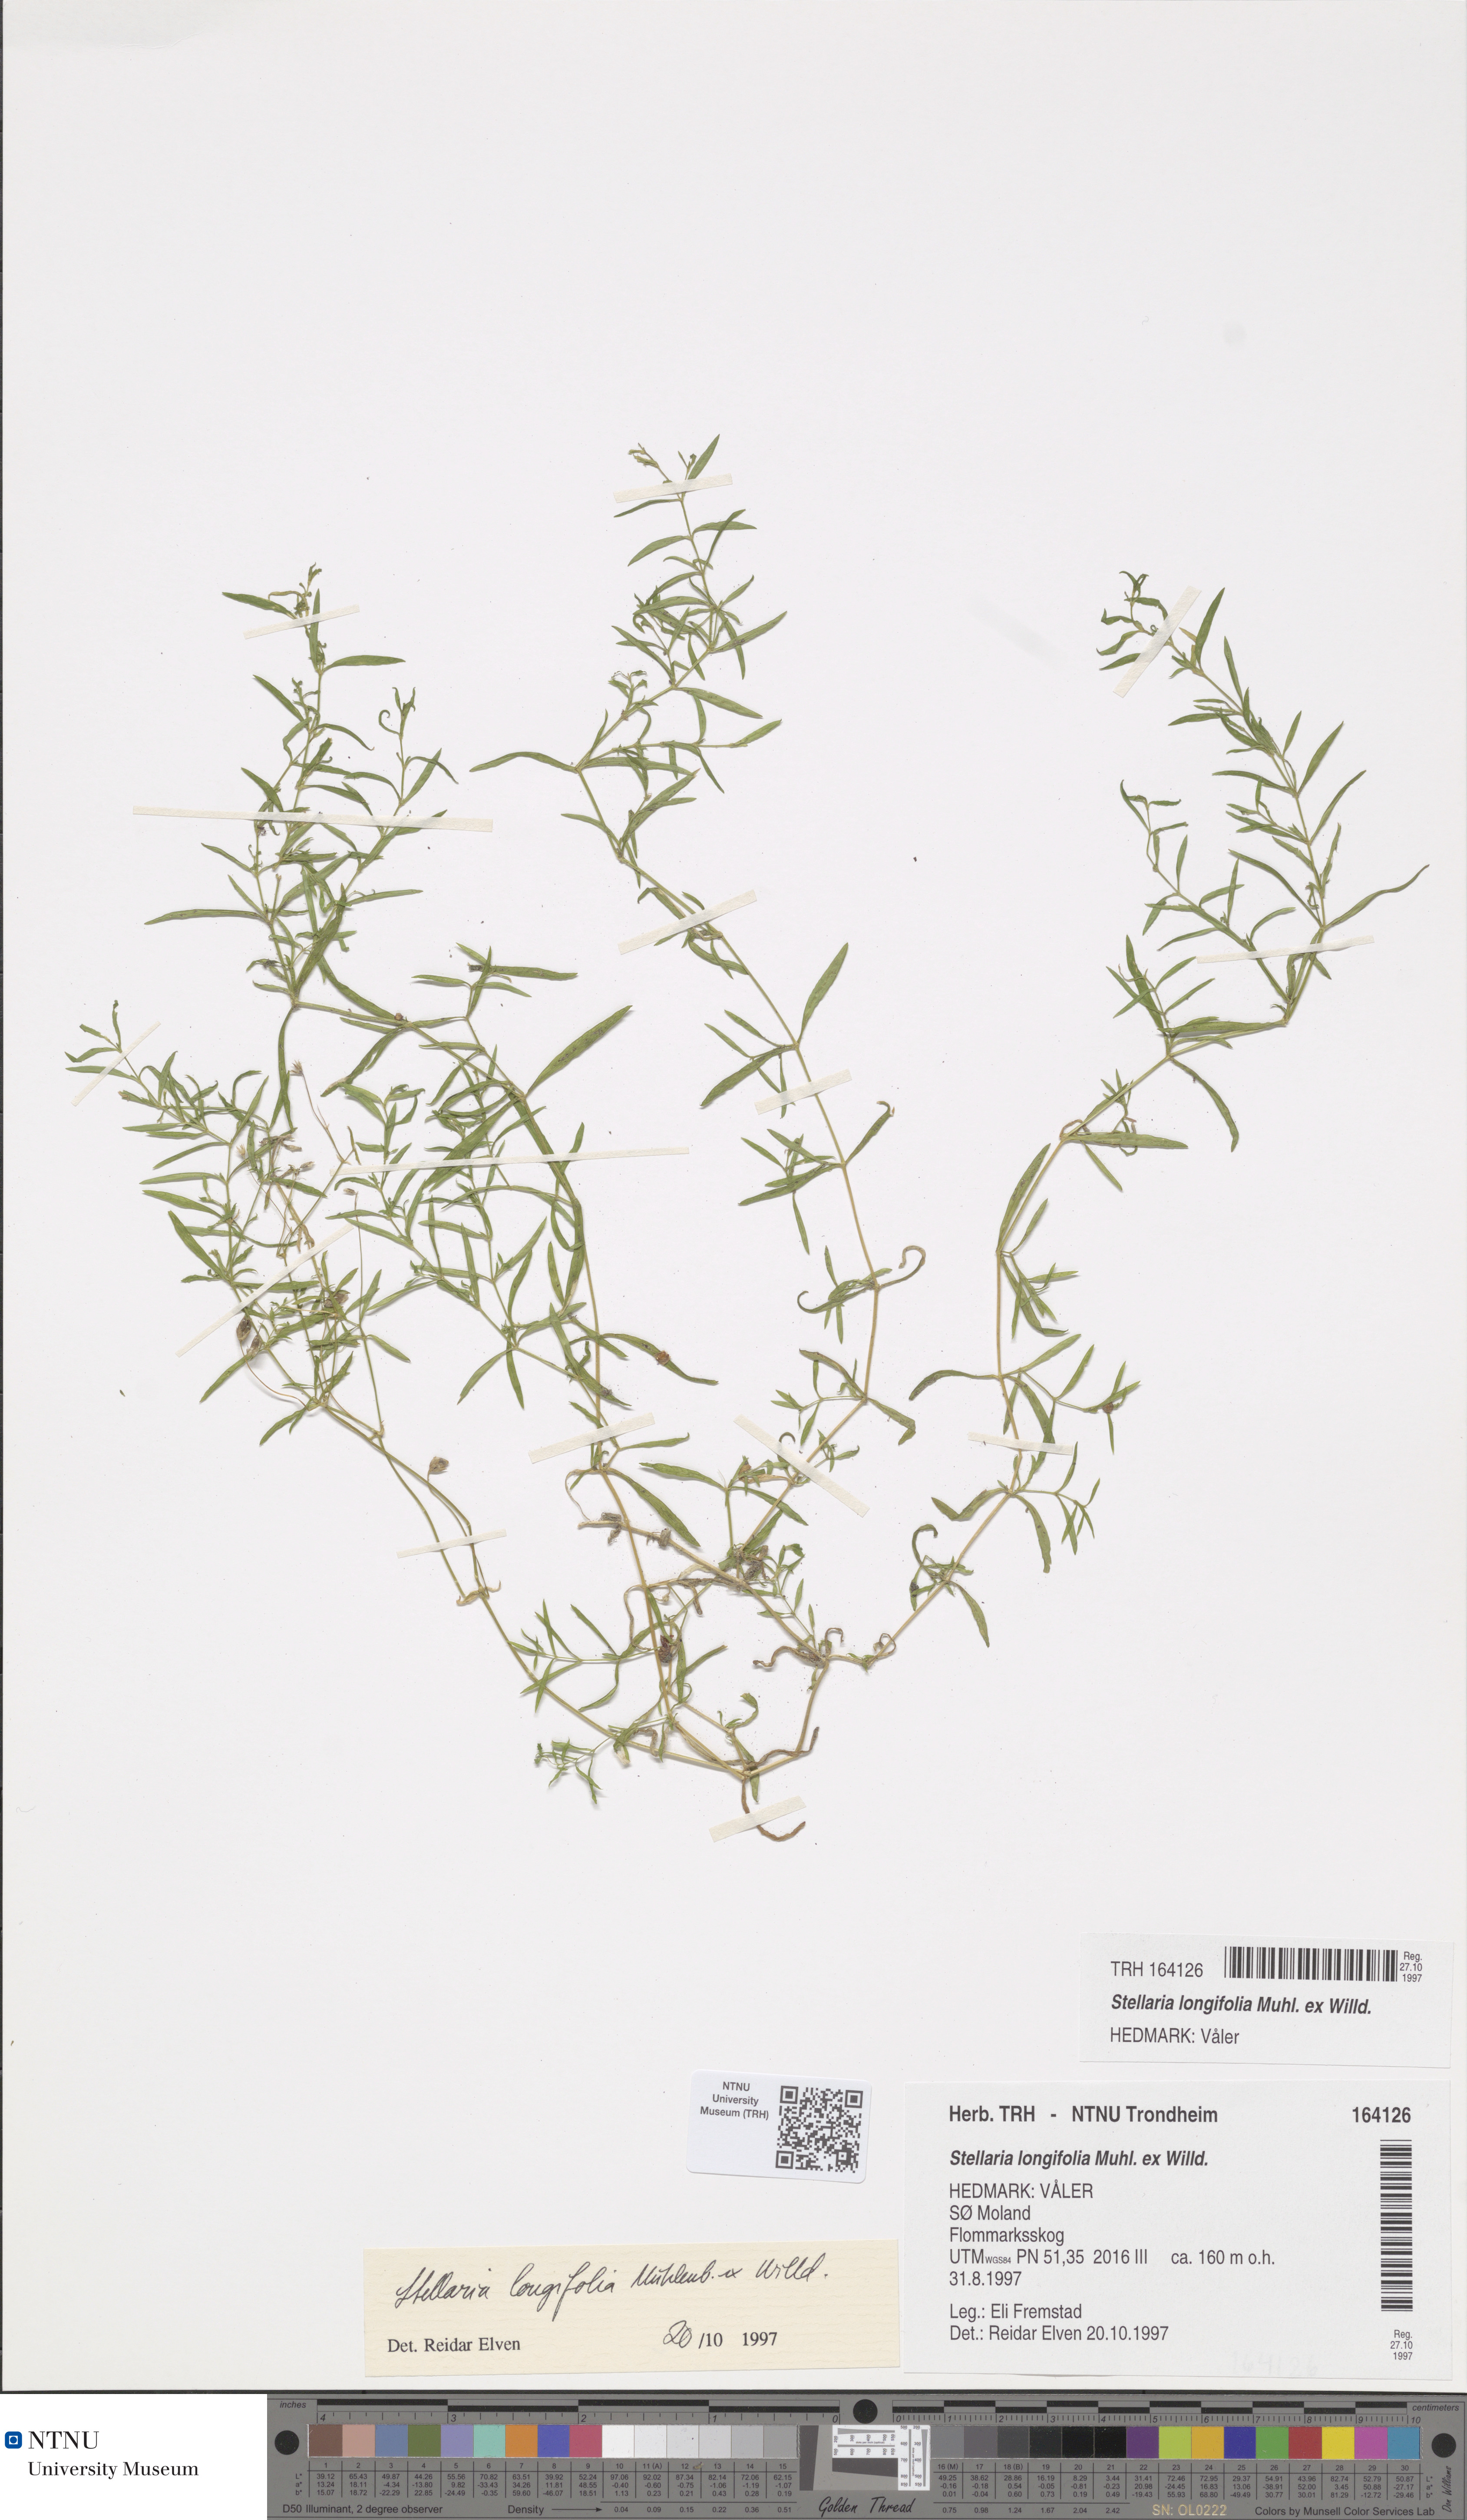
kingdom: Plantae
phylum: Tracheophyta
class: Magnoliopsida
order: Caryophyllales
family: Caryophyllaceae
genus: Stellaria
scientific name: Stellaria longifolia
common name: Long-leaved chickweed
